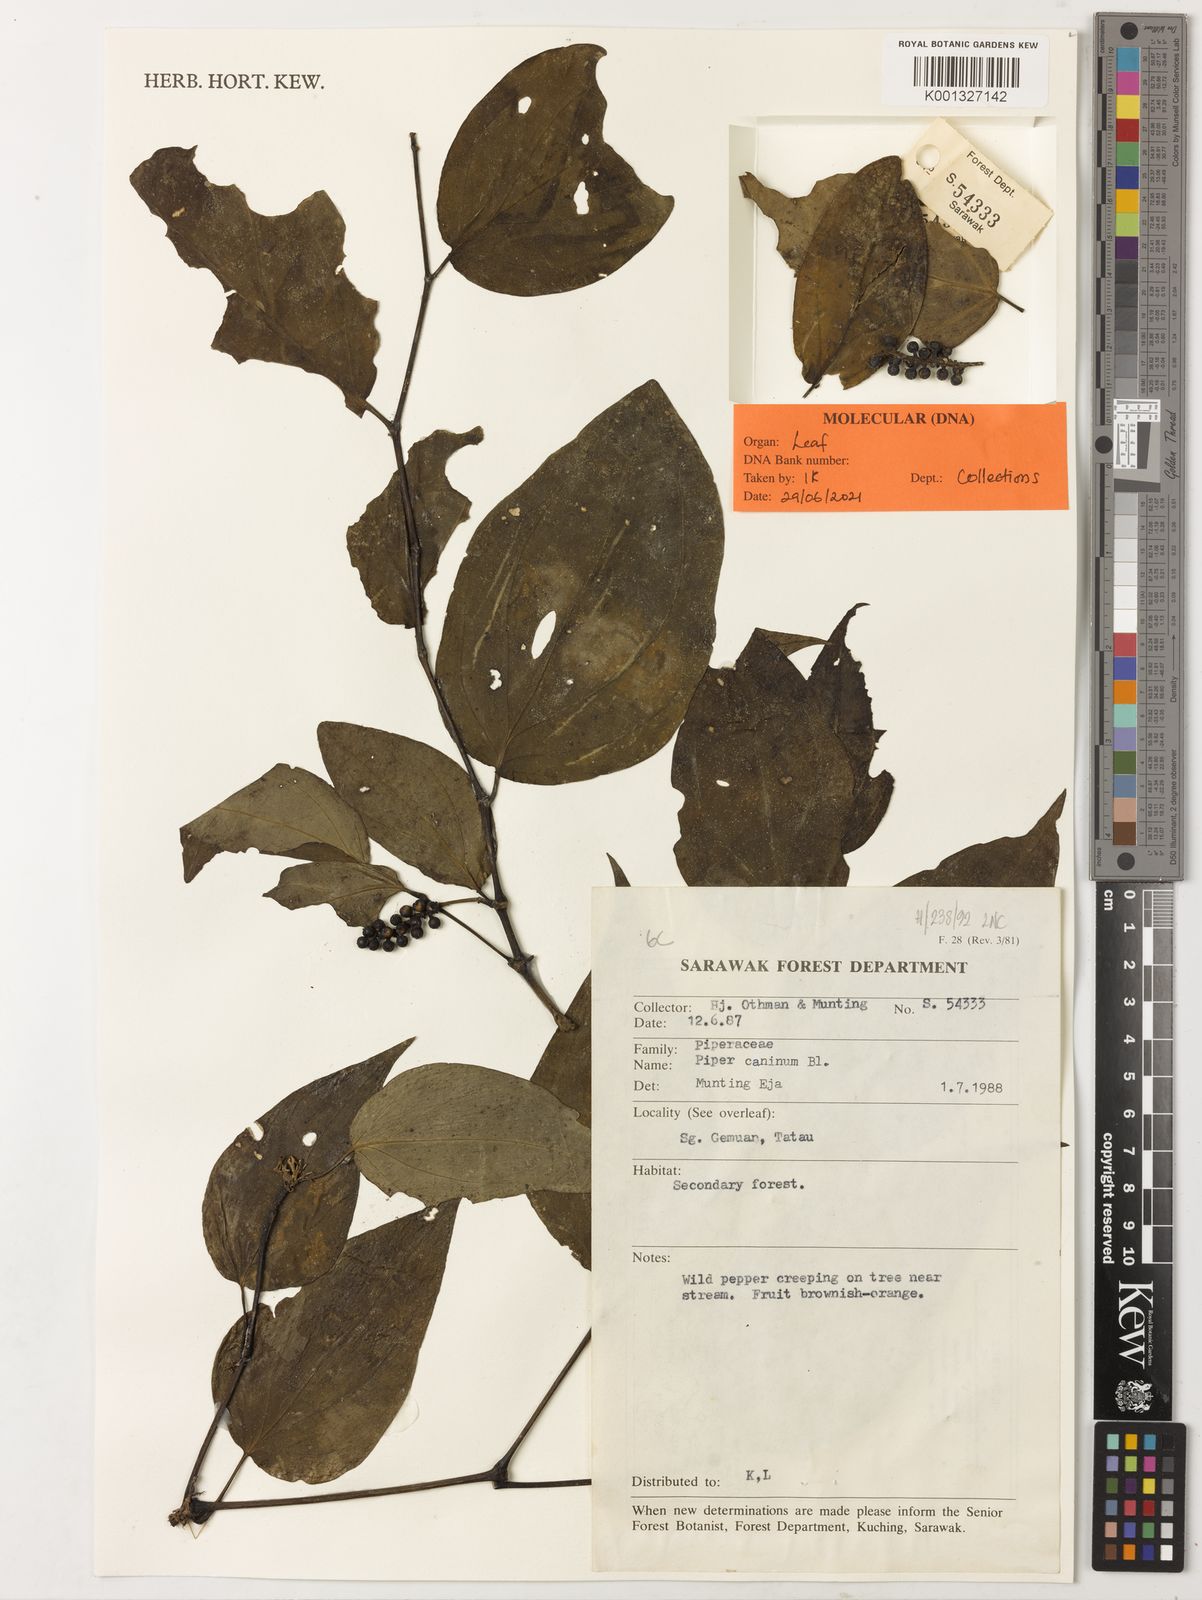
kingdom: Plantae
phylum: Tracheophyta
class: Magnoliopsida
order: Piperales
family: Piperaceae
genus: Piper
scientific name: Piper lanatum
